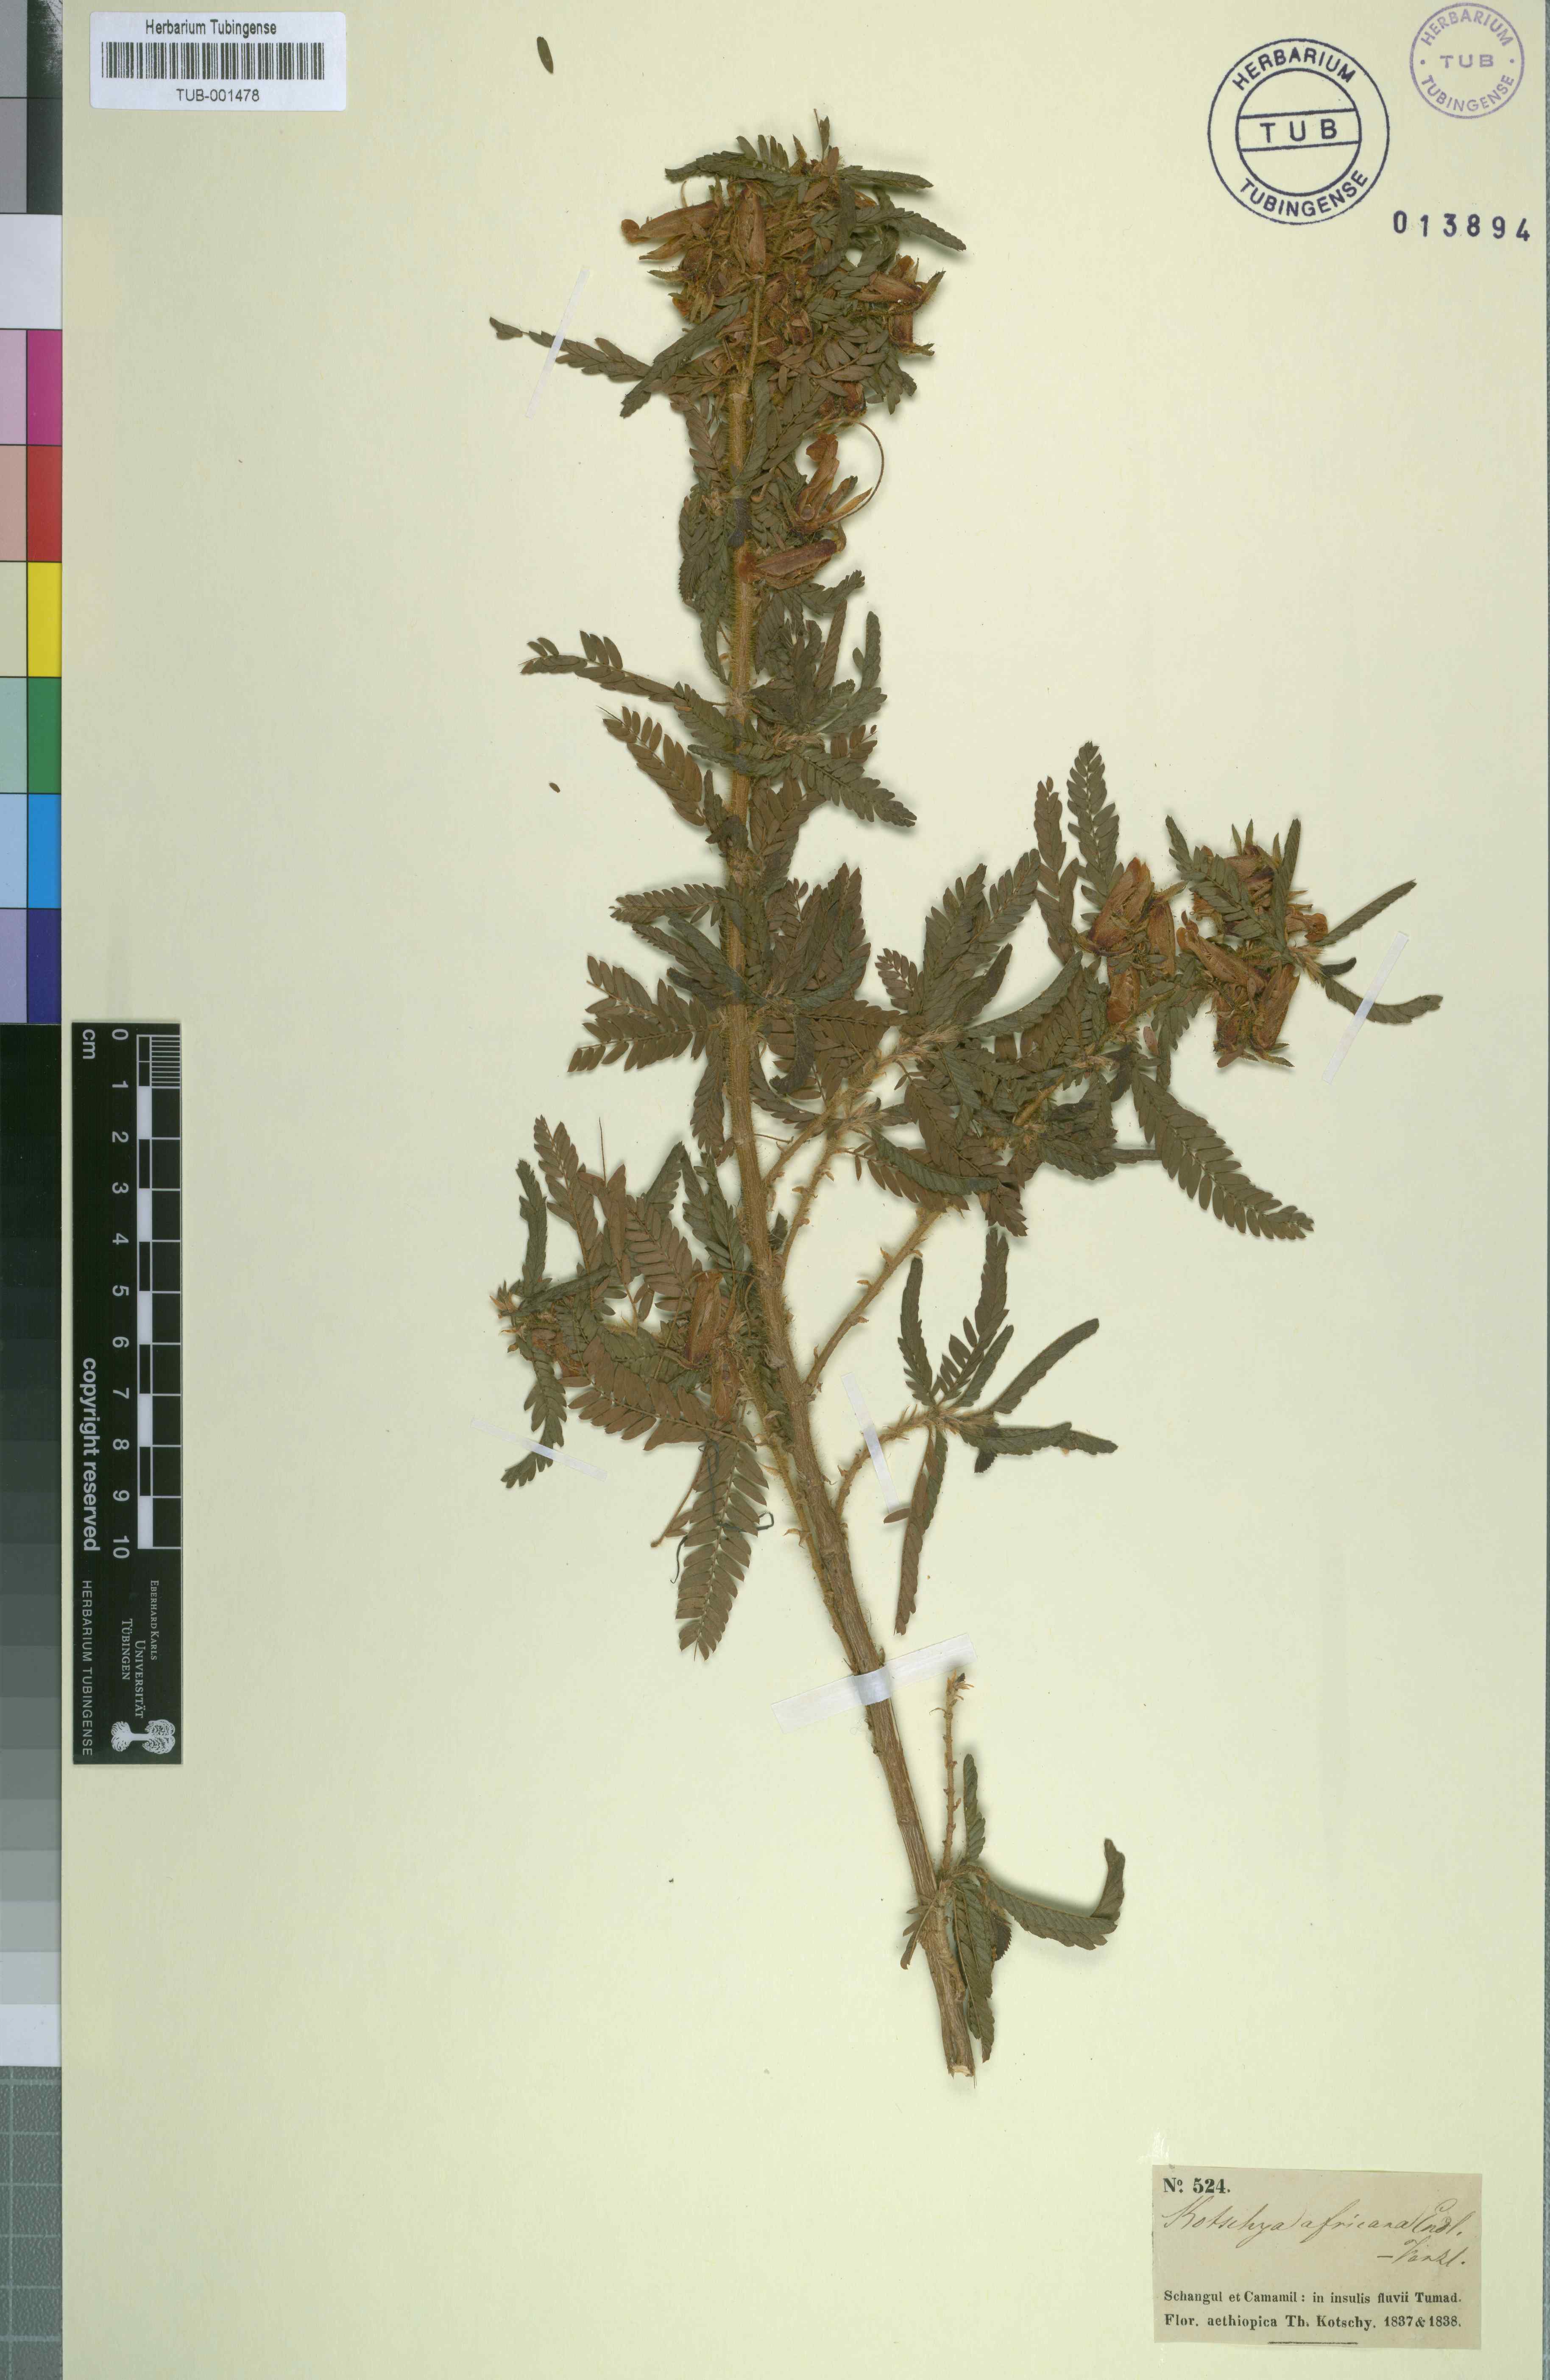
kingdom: Plantae
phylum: Tracheophyta
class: Magnoliopsida
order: Fabales
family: Fabaceae
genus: Kotschya
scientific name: Kotschya africana
